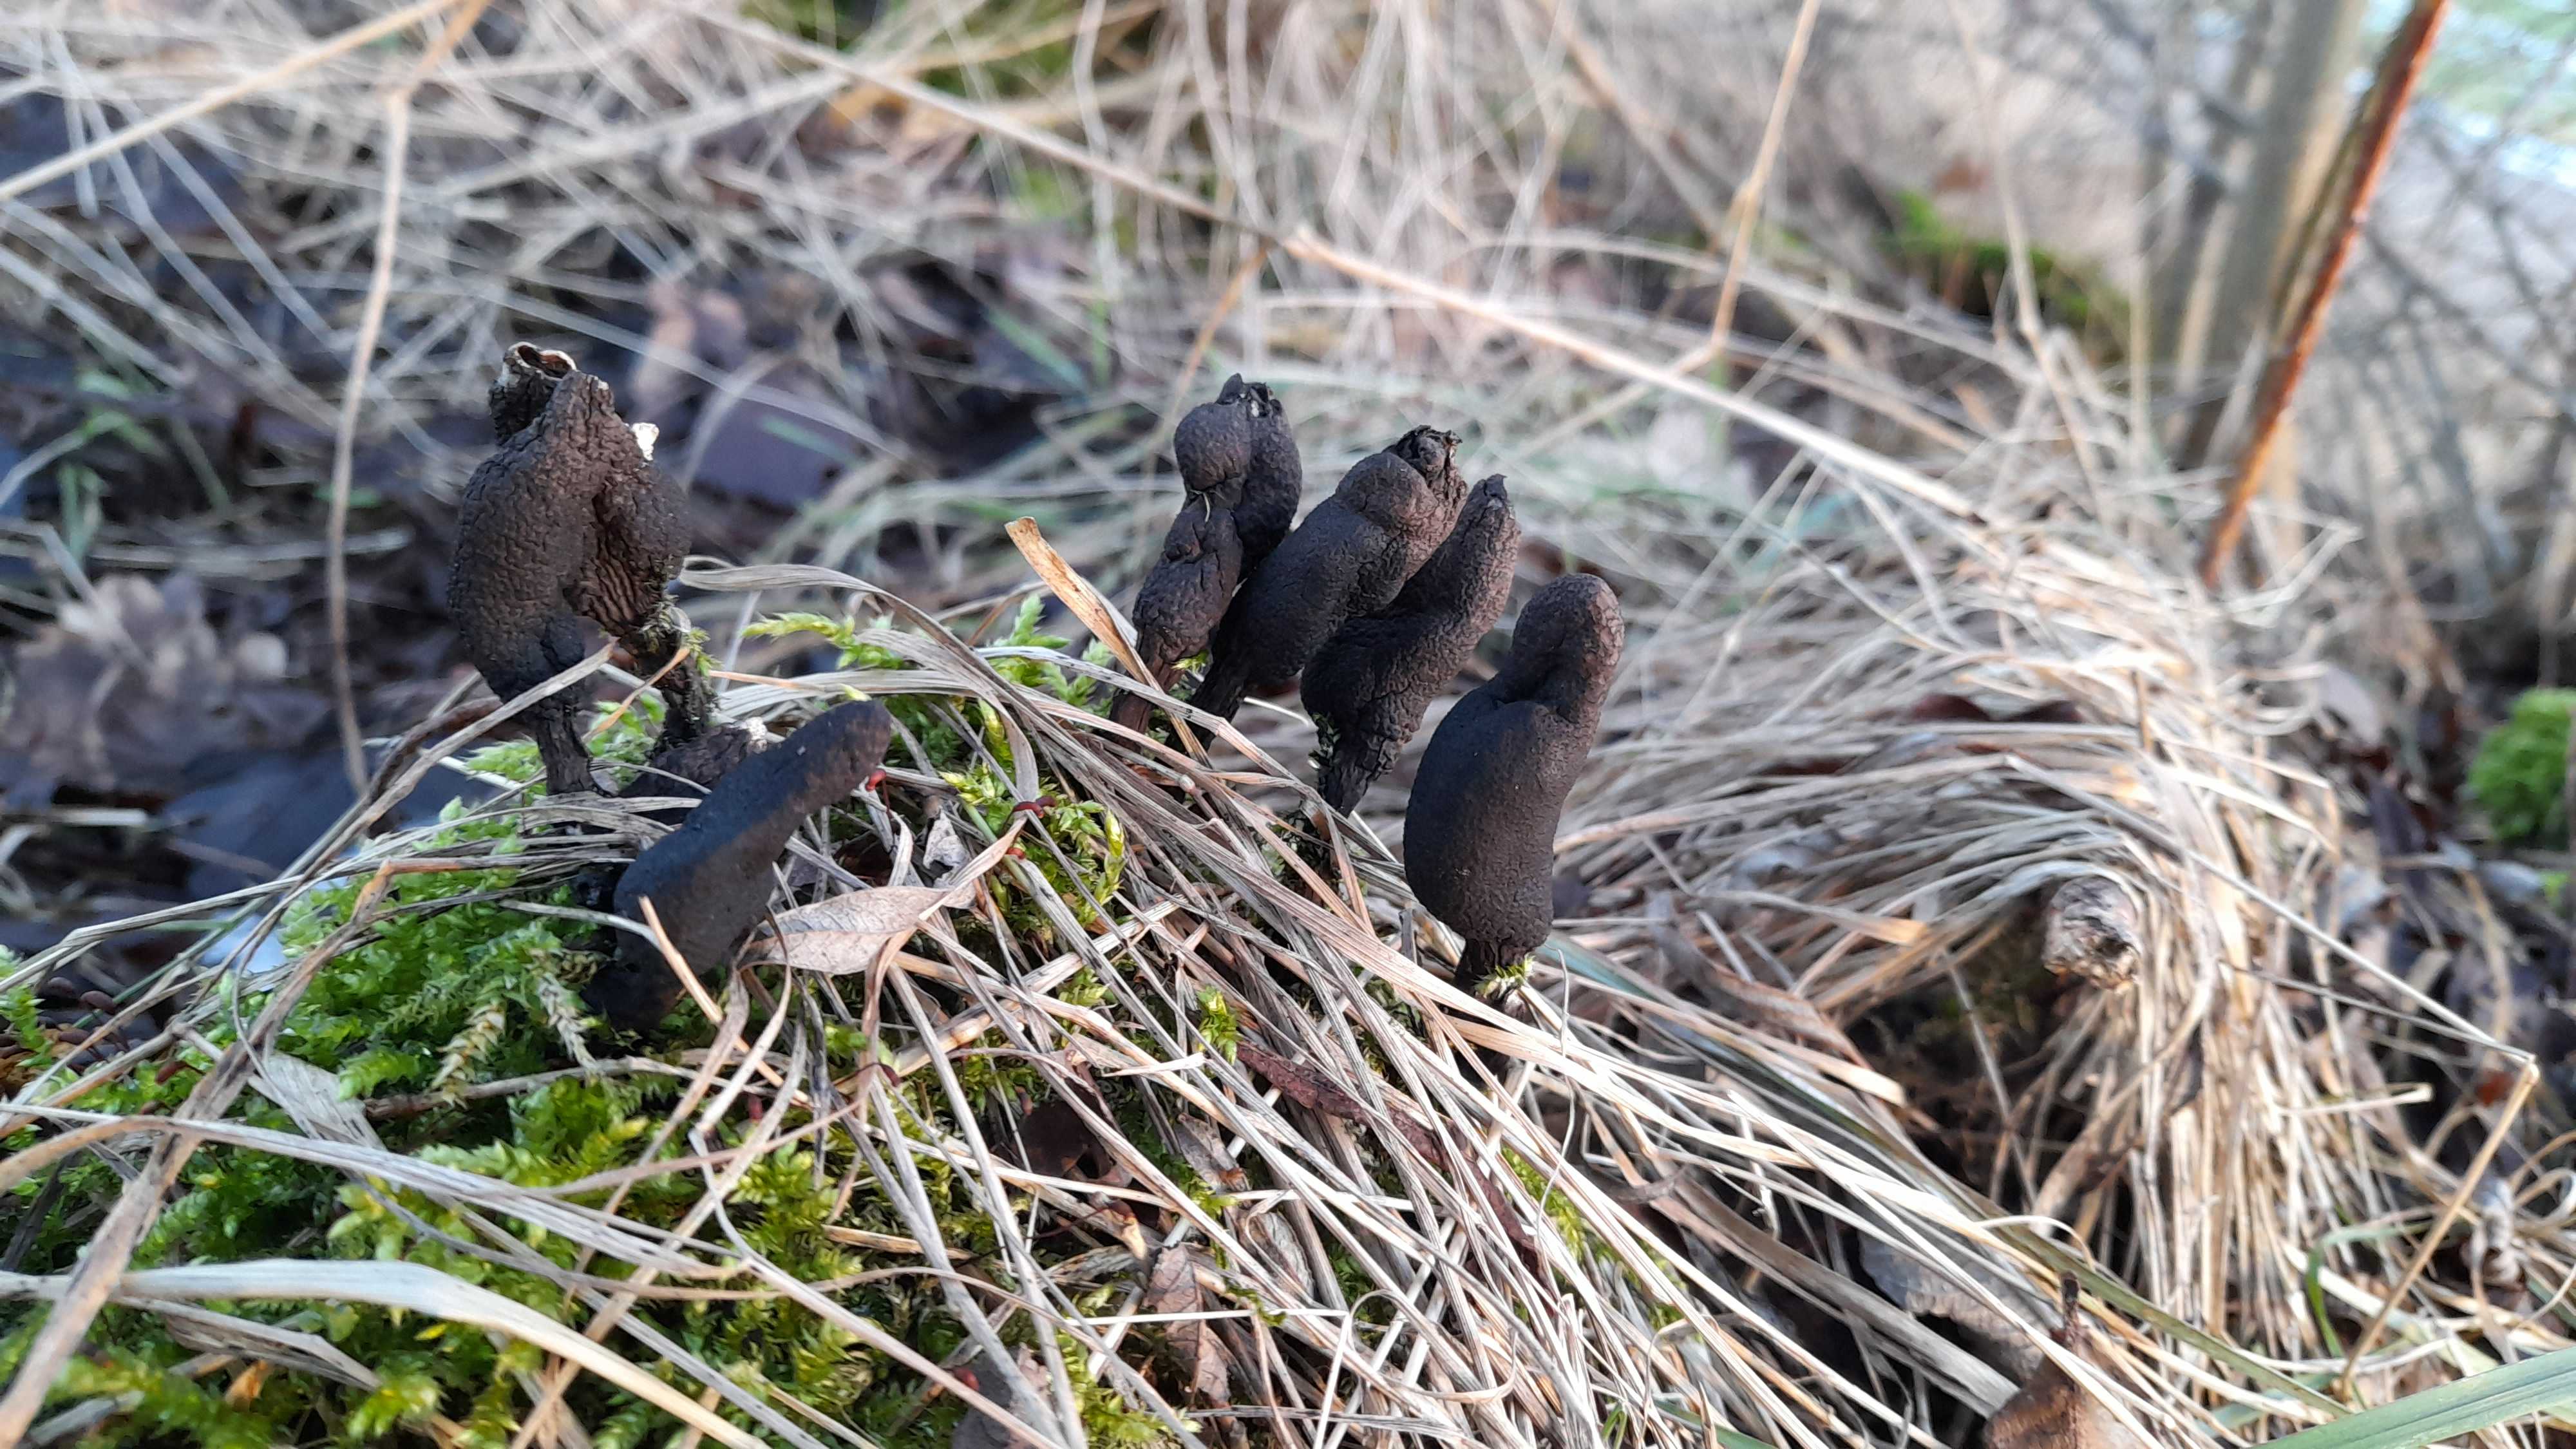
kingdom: Fungi
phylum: Ascomycota
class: Sordariomycetes
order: Xylariales
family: Xylariaceae
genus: Xylaria
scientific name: Xylaria
